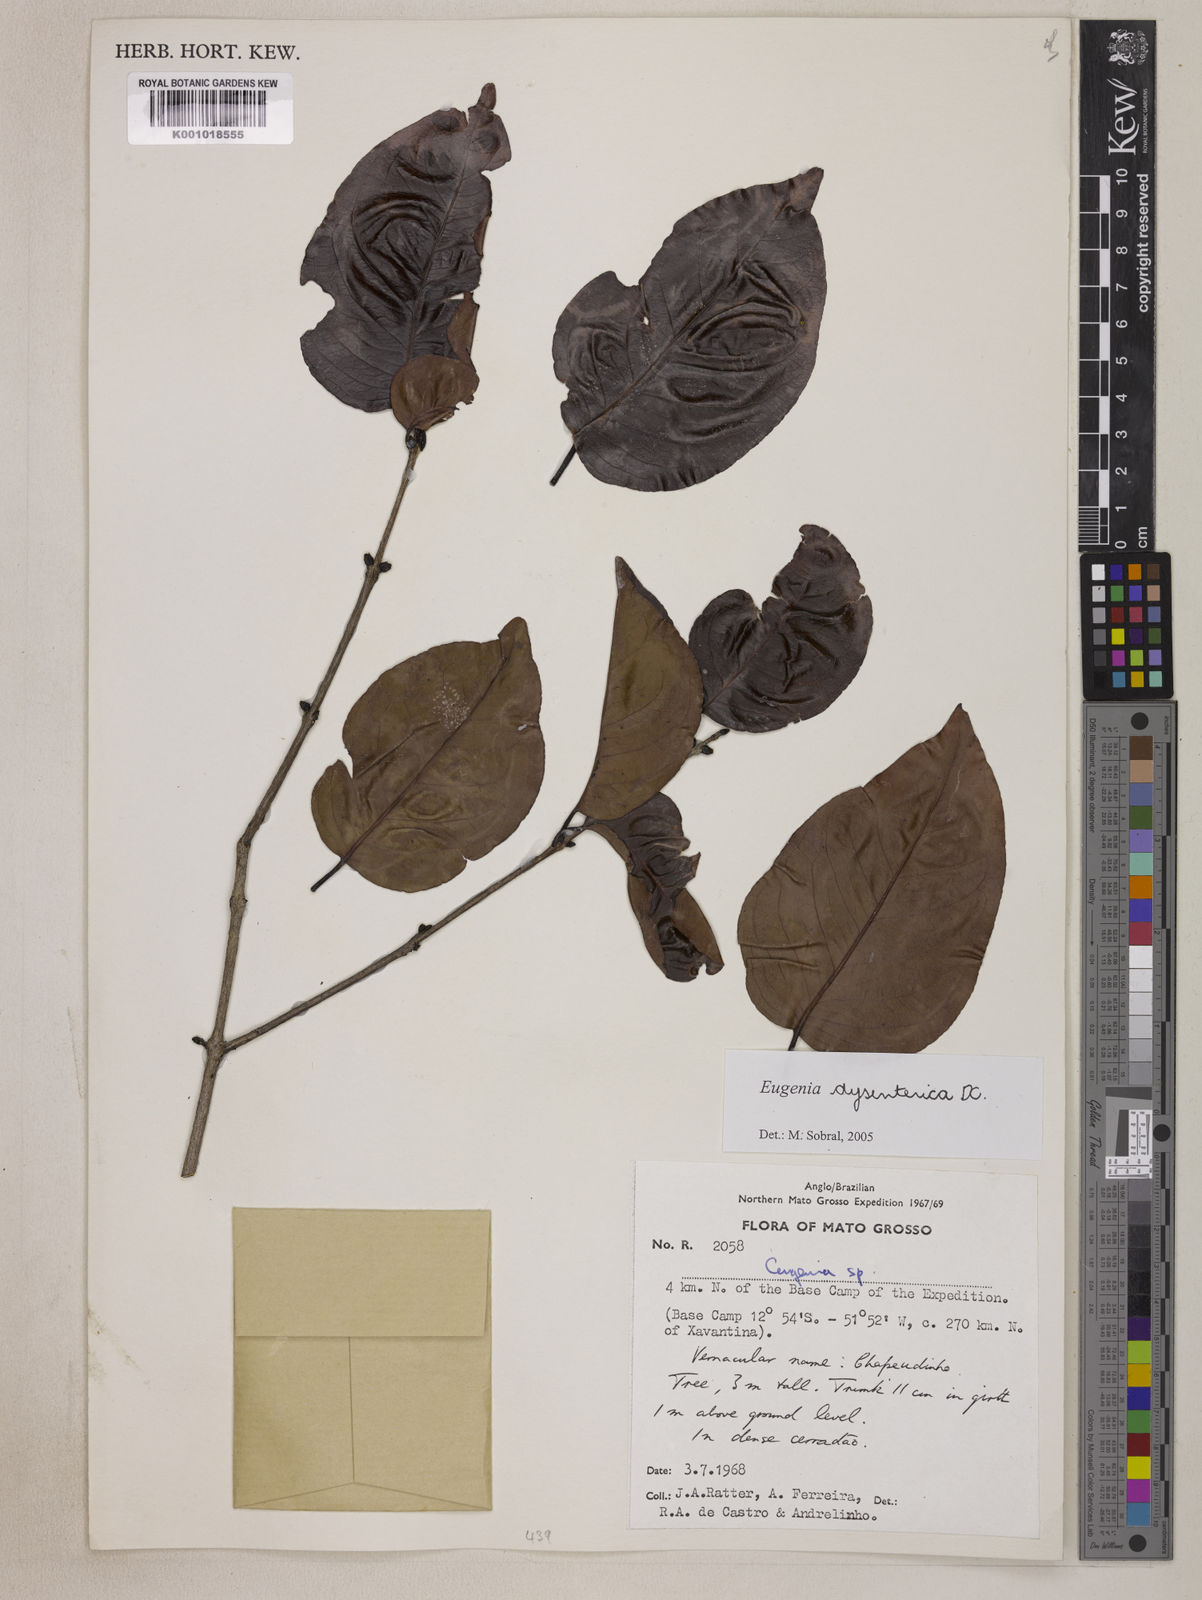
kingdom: Plantae
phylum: Tracheophyta
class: Magnoliopsida
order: Myrtales
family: Myrtaceae
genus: Eugenia
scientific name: Eugenia dysenterica
